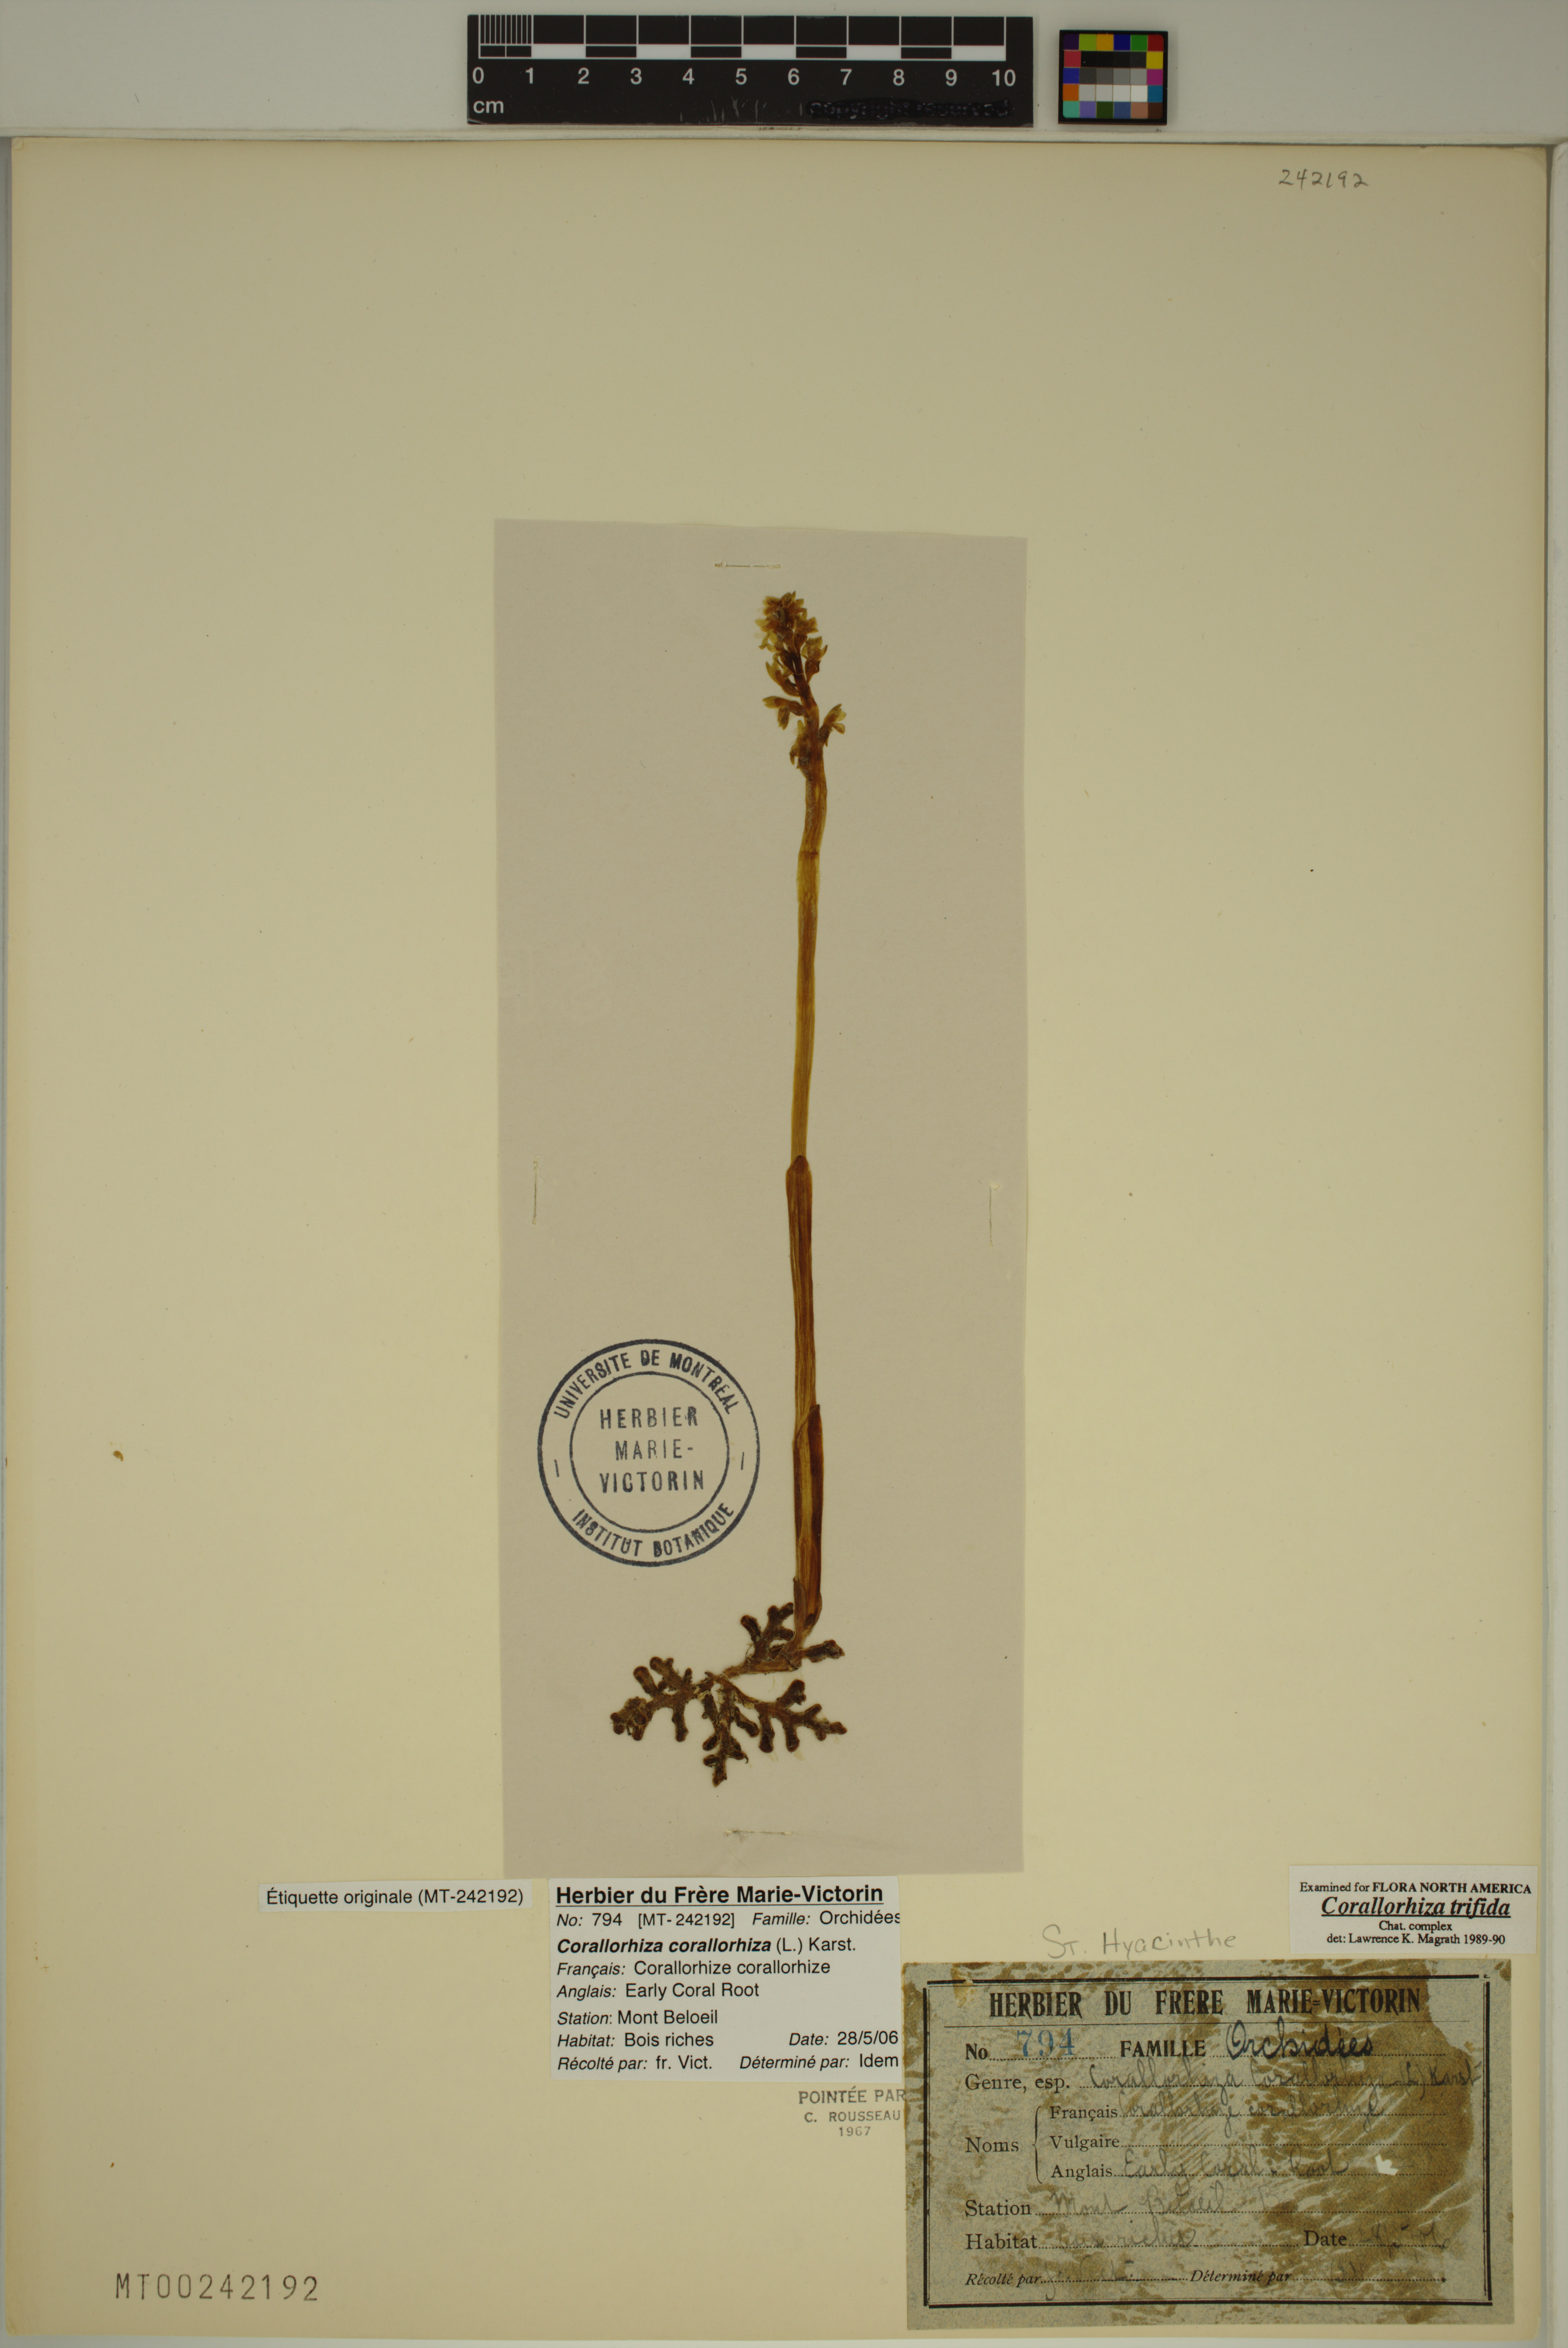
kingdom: Plantae
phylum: Tracheophyta
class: Liliopsida
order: Asparagales
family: Orchidaceae
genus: Corallorhiza
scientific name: Corallorhiza trifida
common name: Yellow coralroot
